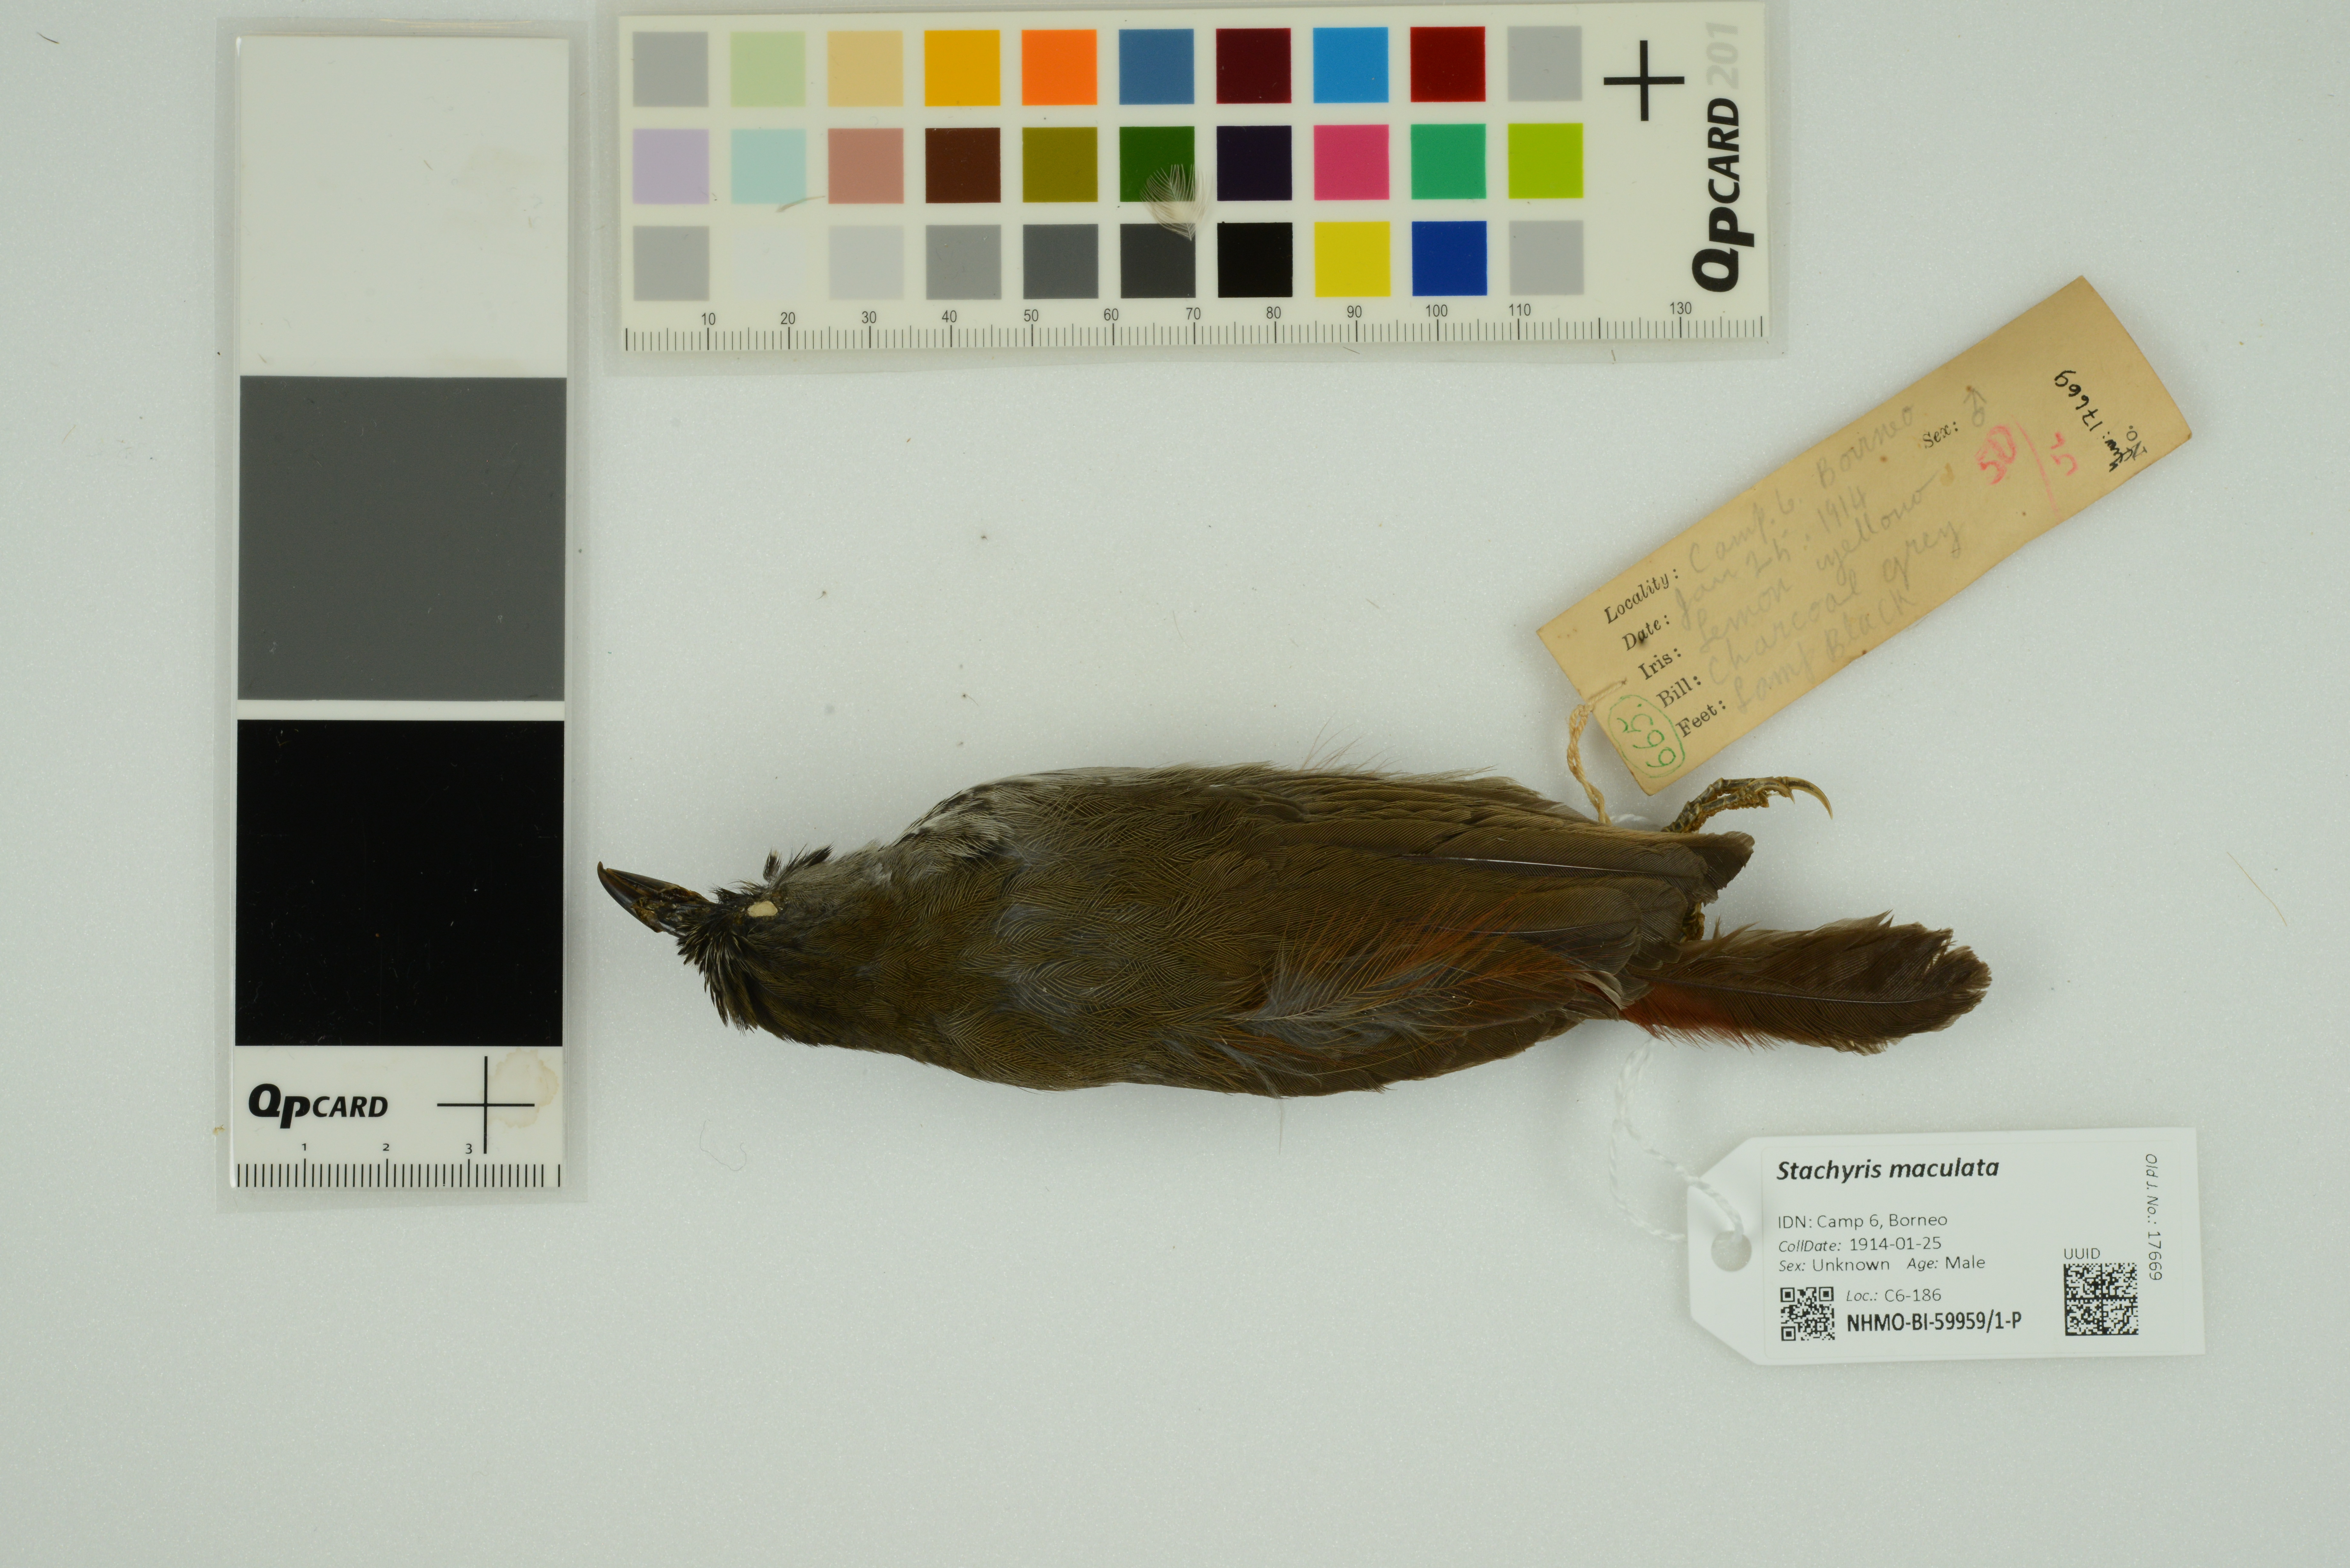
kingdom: Animalia
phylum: Chordata
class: Aves
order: Passeriformes
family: Timaliidae
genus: Stachyris
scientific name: Stachyris maculata
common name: Chestnut-rumped babbler
